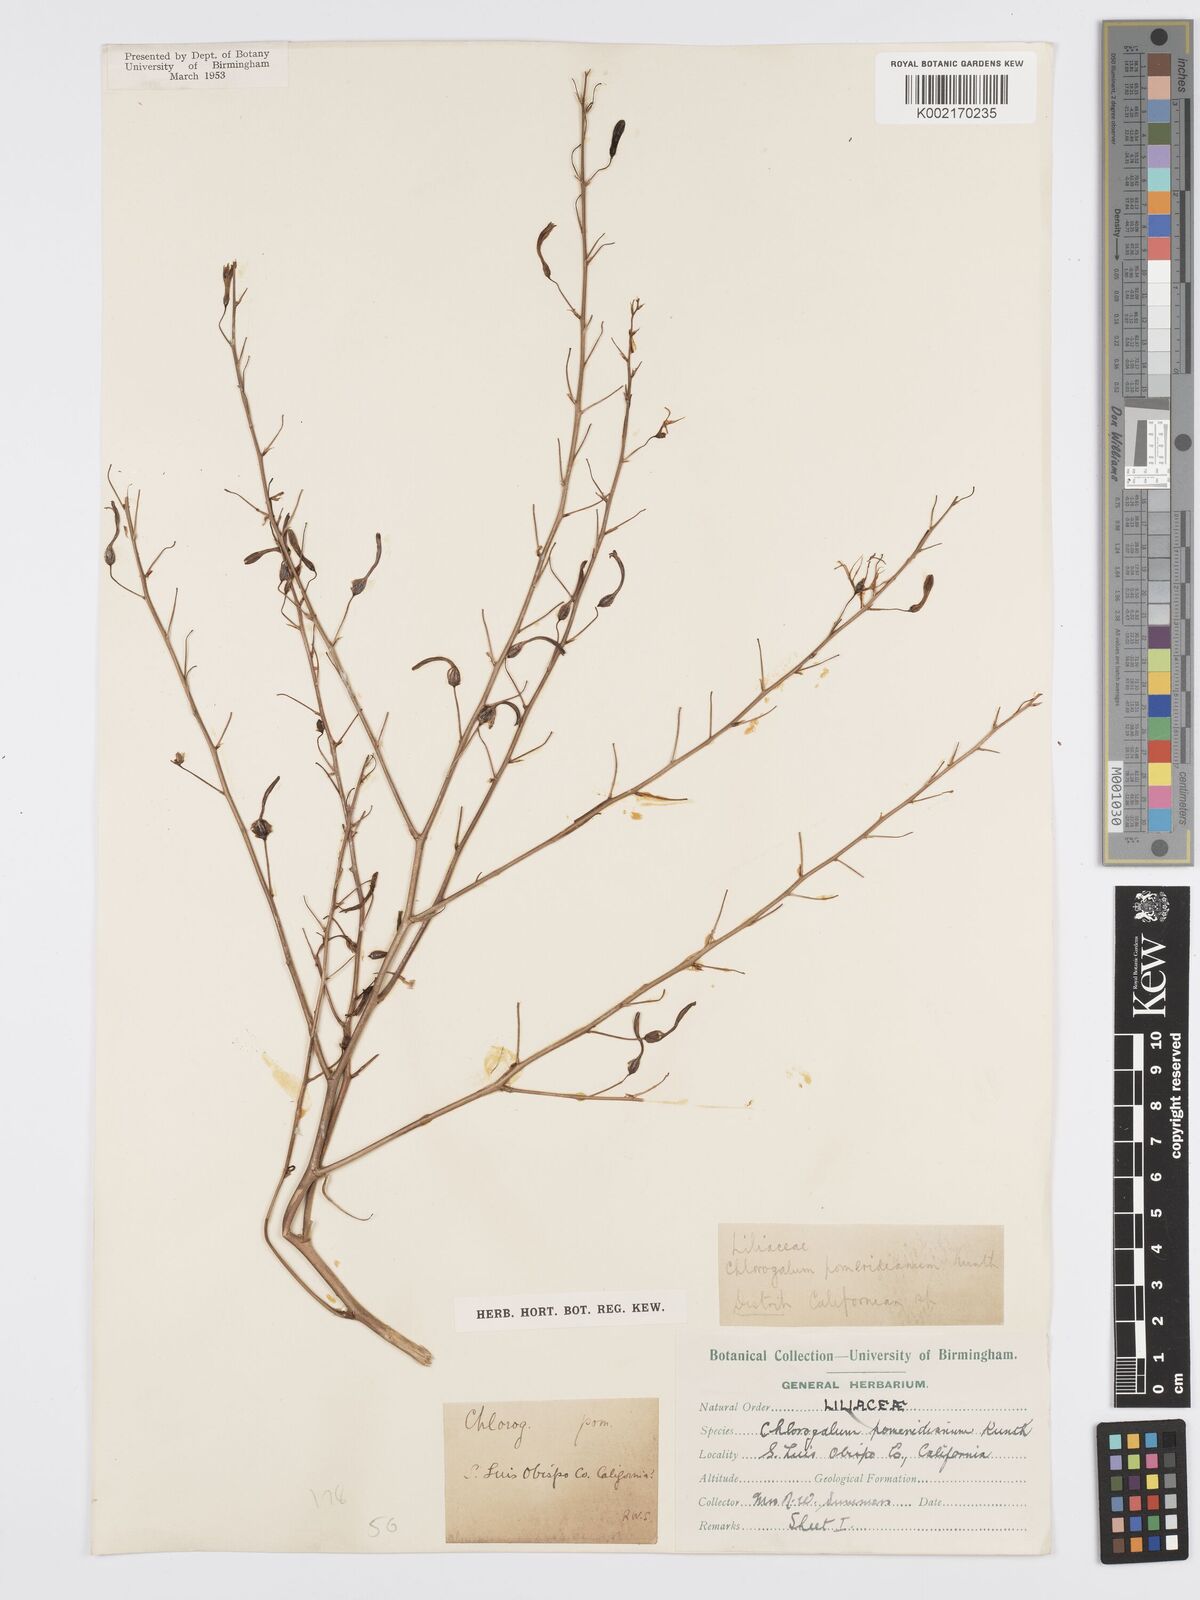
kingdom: Plantae
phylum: Tracheophyta
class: Liliopsida
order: Asparagales
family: Asparagaceae
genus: Chlorogalum
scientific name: Chlorogalum pomeridianum
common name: Amole
